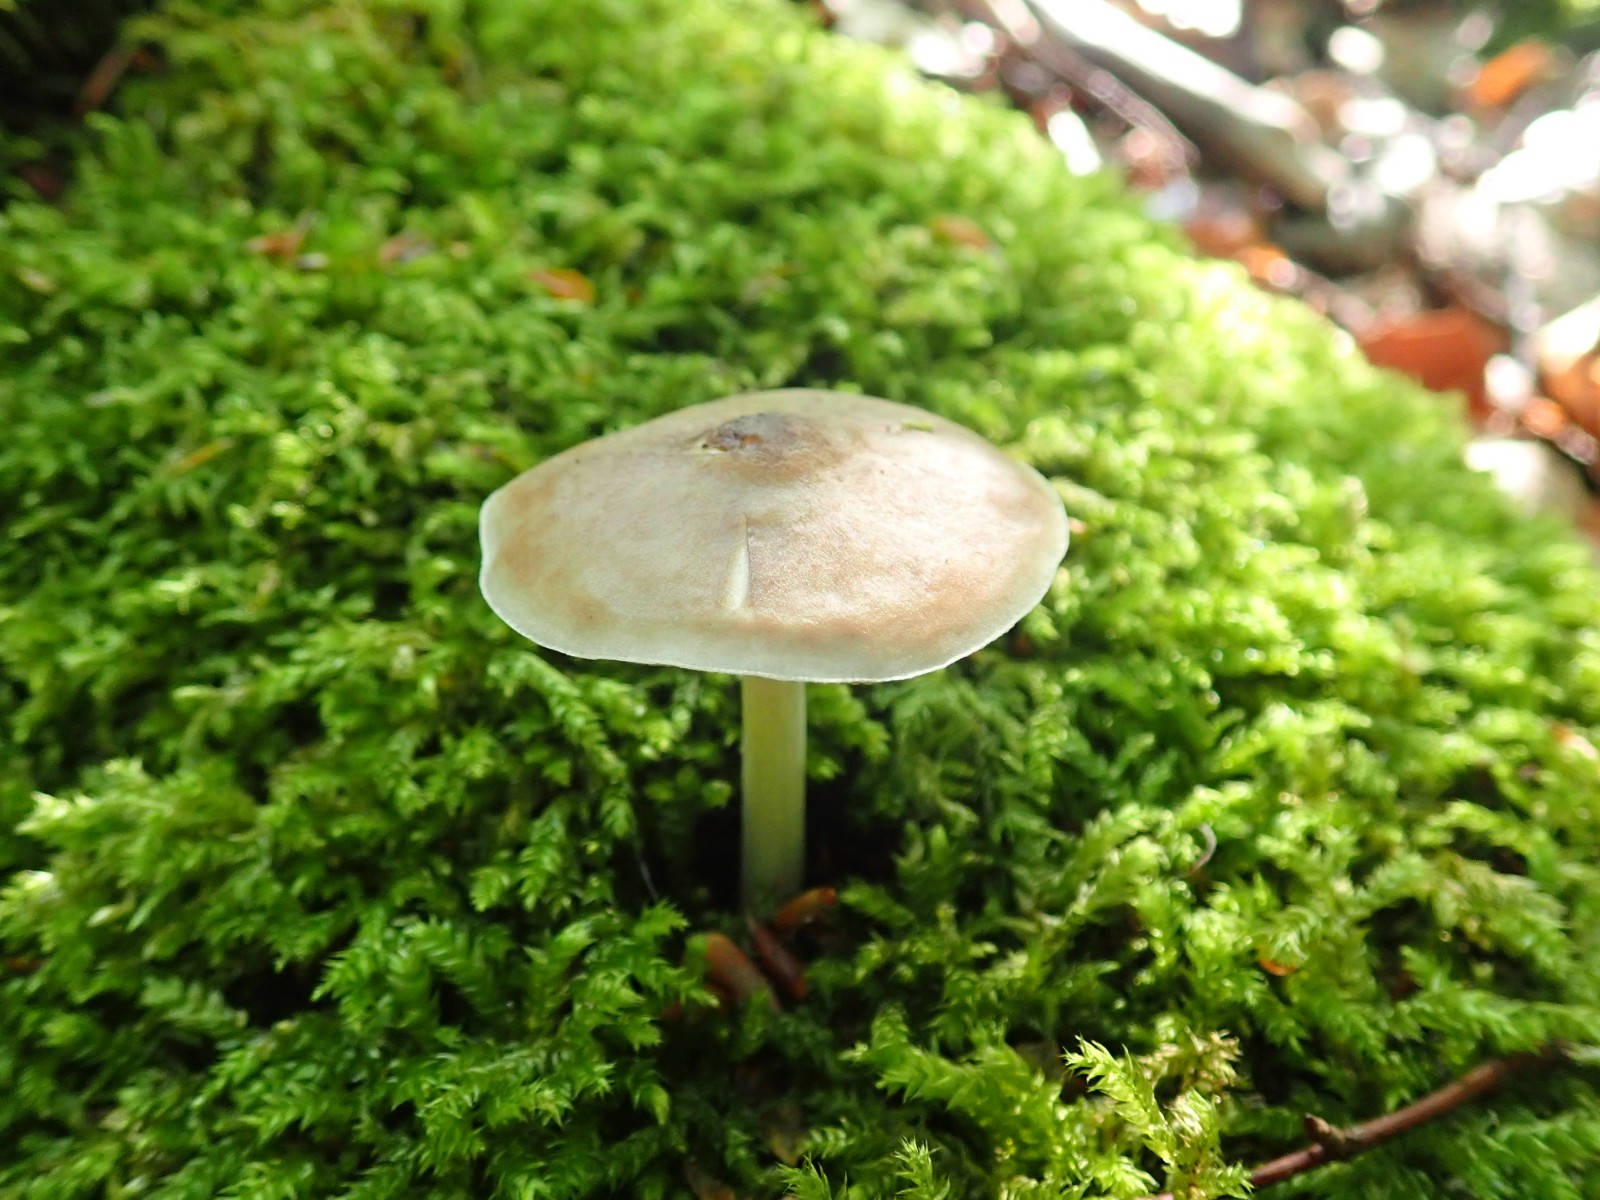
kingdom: Fungi
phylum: Basidiomycota
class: Agaricomycetes
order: Agaricales
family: Pluteaceae
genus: Pluteus
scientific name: Pluteus cervinus
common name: sodfarvet skærmhat
